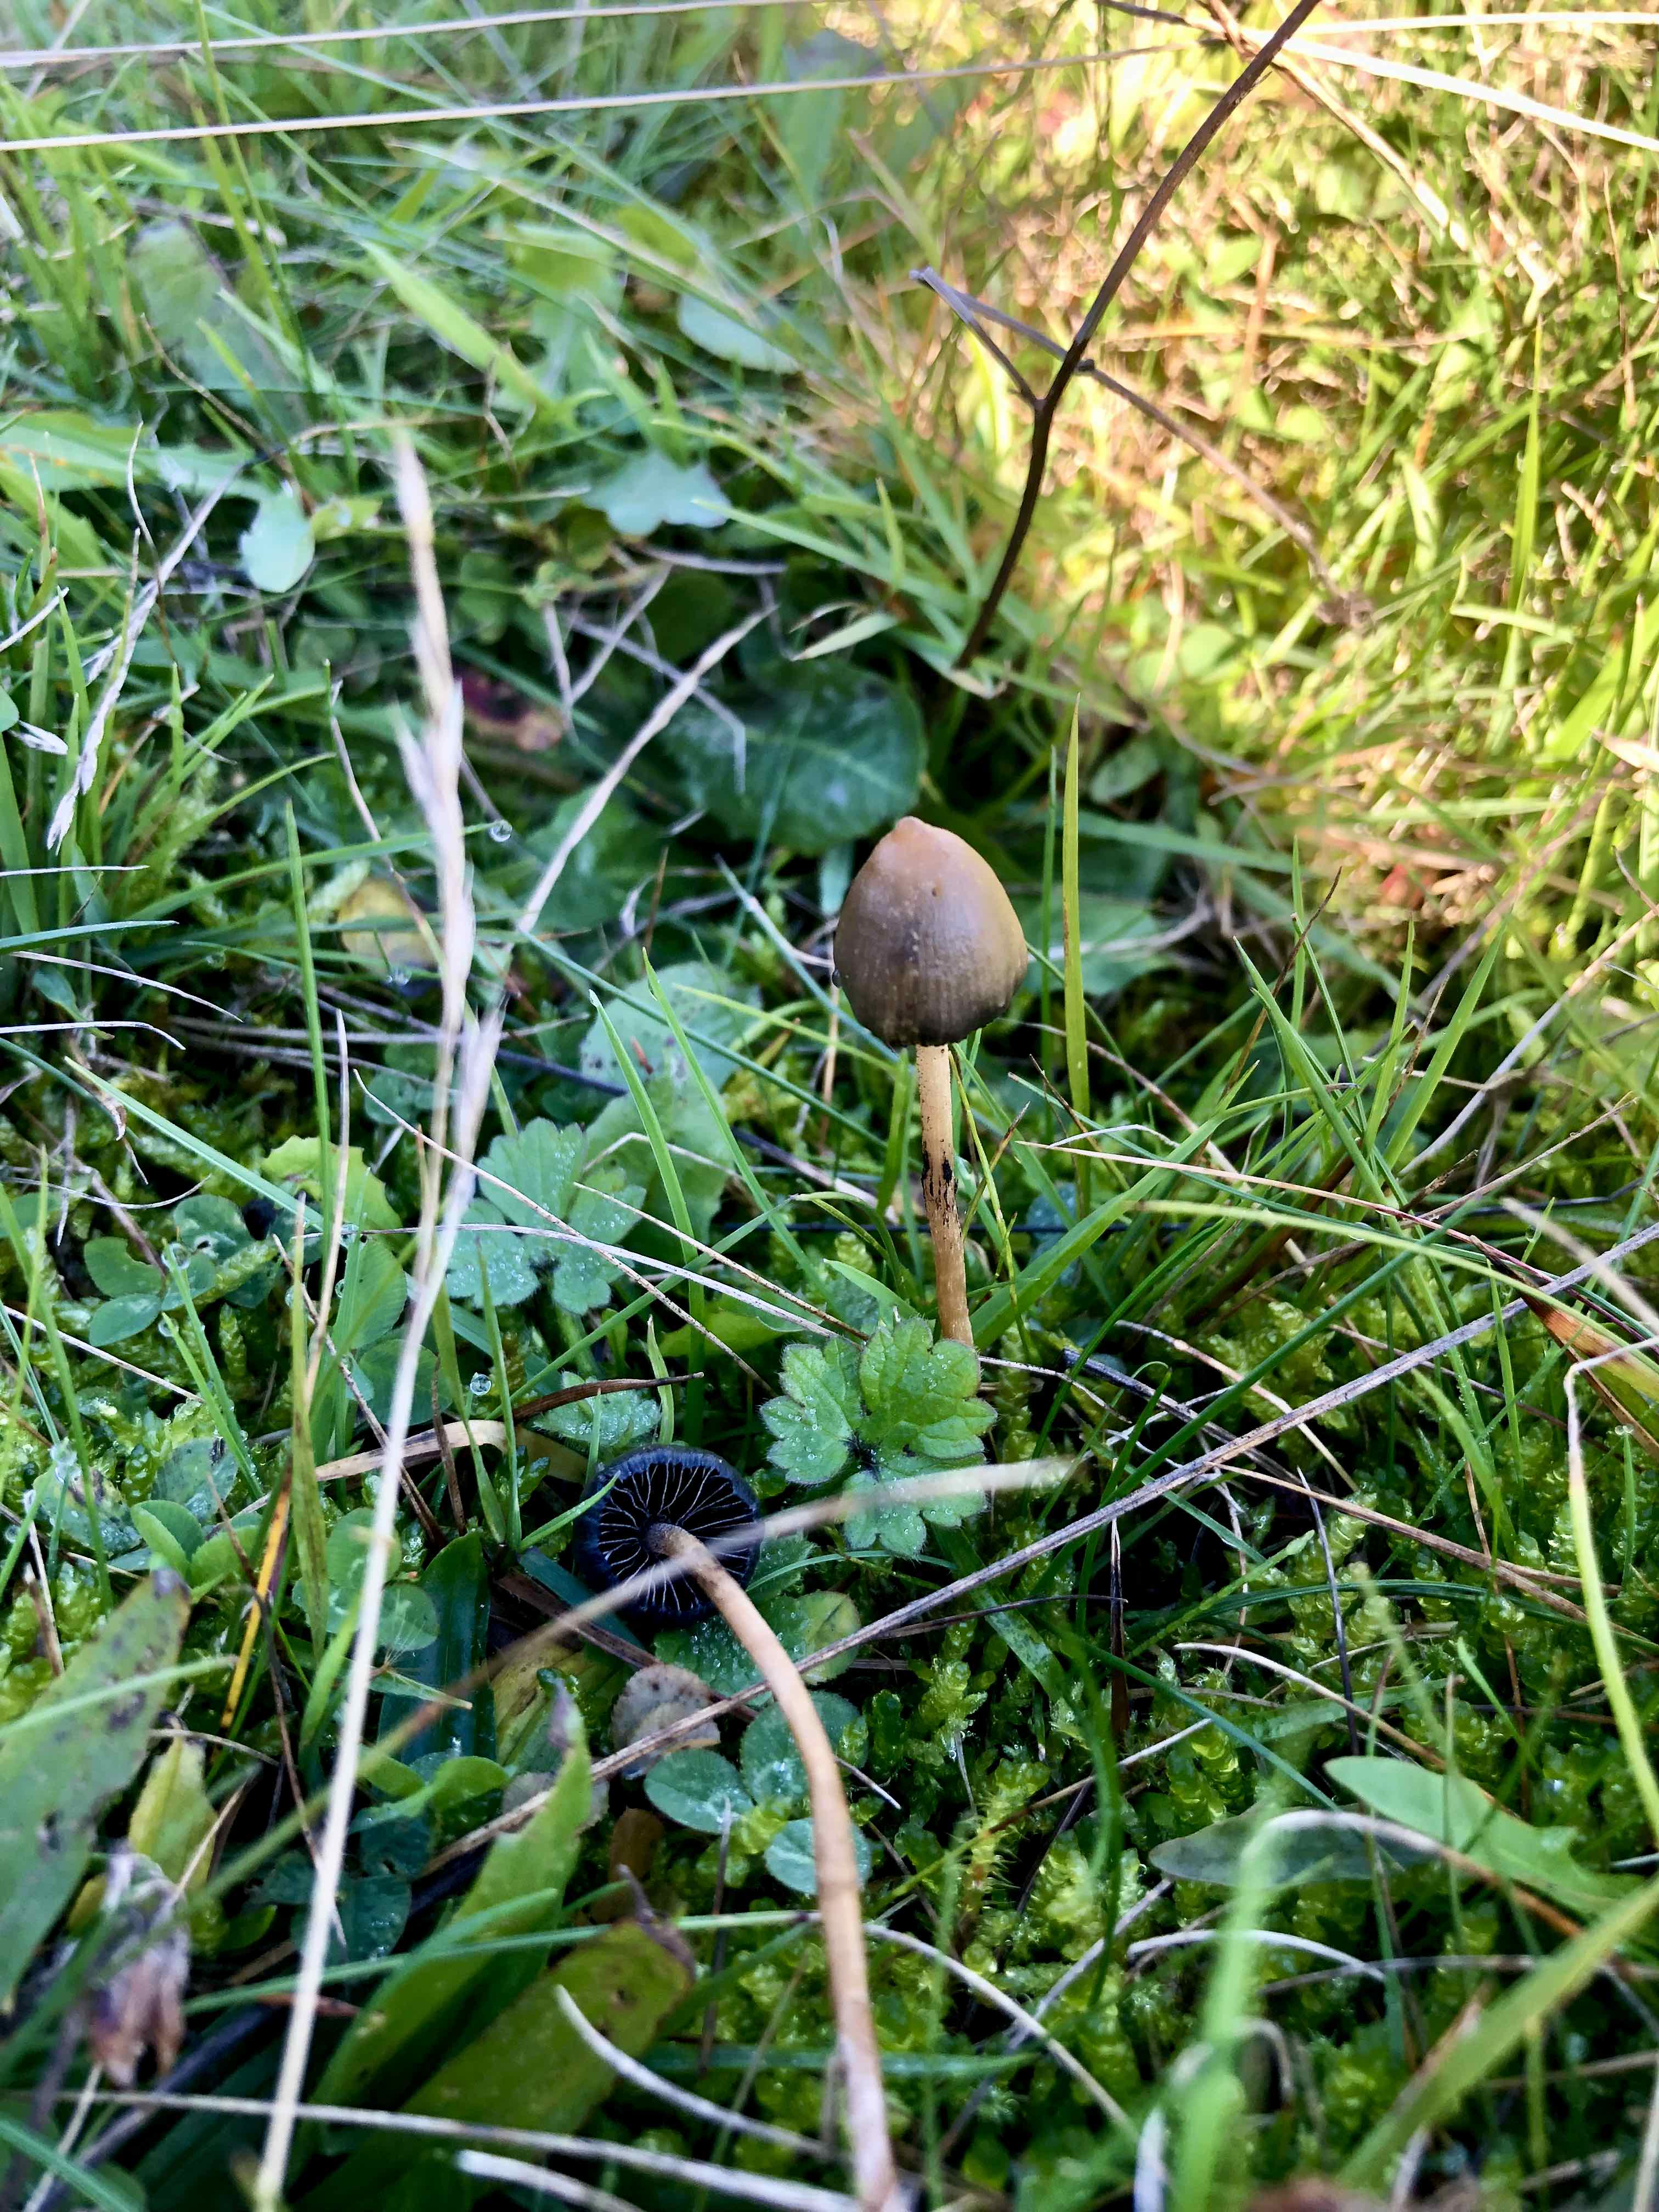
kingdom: Fungi
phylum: Basidiomycota
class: Agaricomycetes
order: Agaricales
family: Hymenogastraceae
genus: Psilocybe
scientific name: Psilocybe semilanceata
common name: spids nøgenhat
